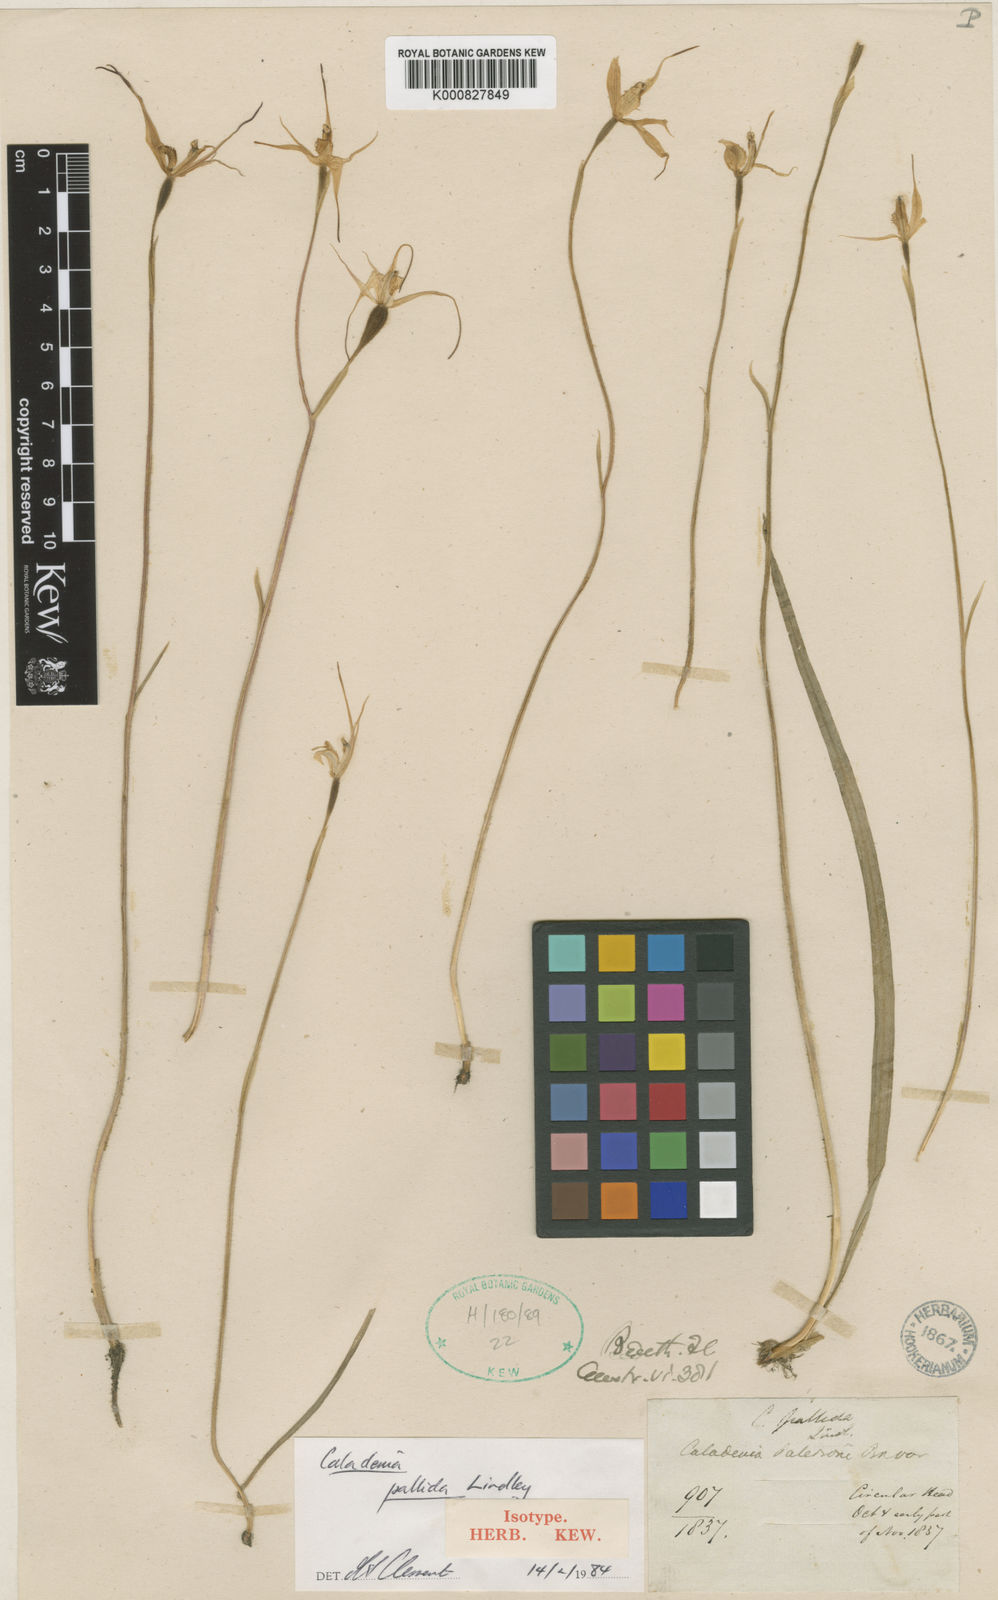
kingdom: Plantae
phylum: Tracheophyta
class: Liliopsida
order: Asparagales
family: Orchidaceae
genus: Caladenia
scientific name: Caladenia pallida
